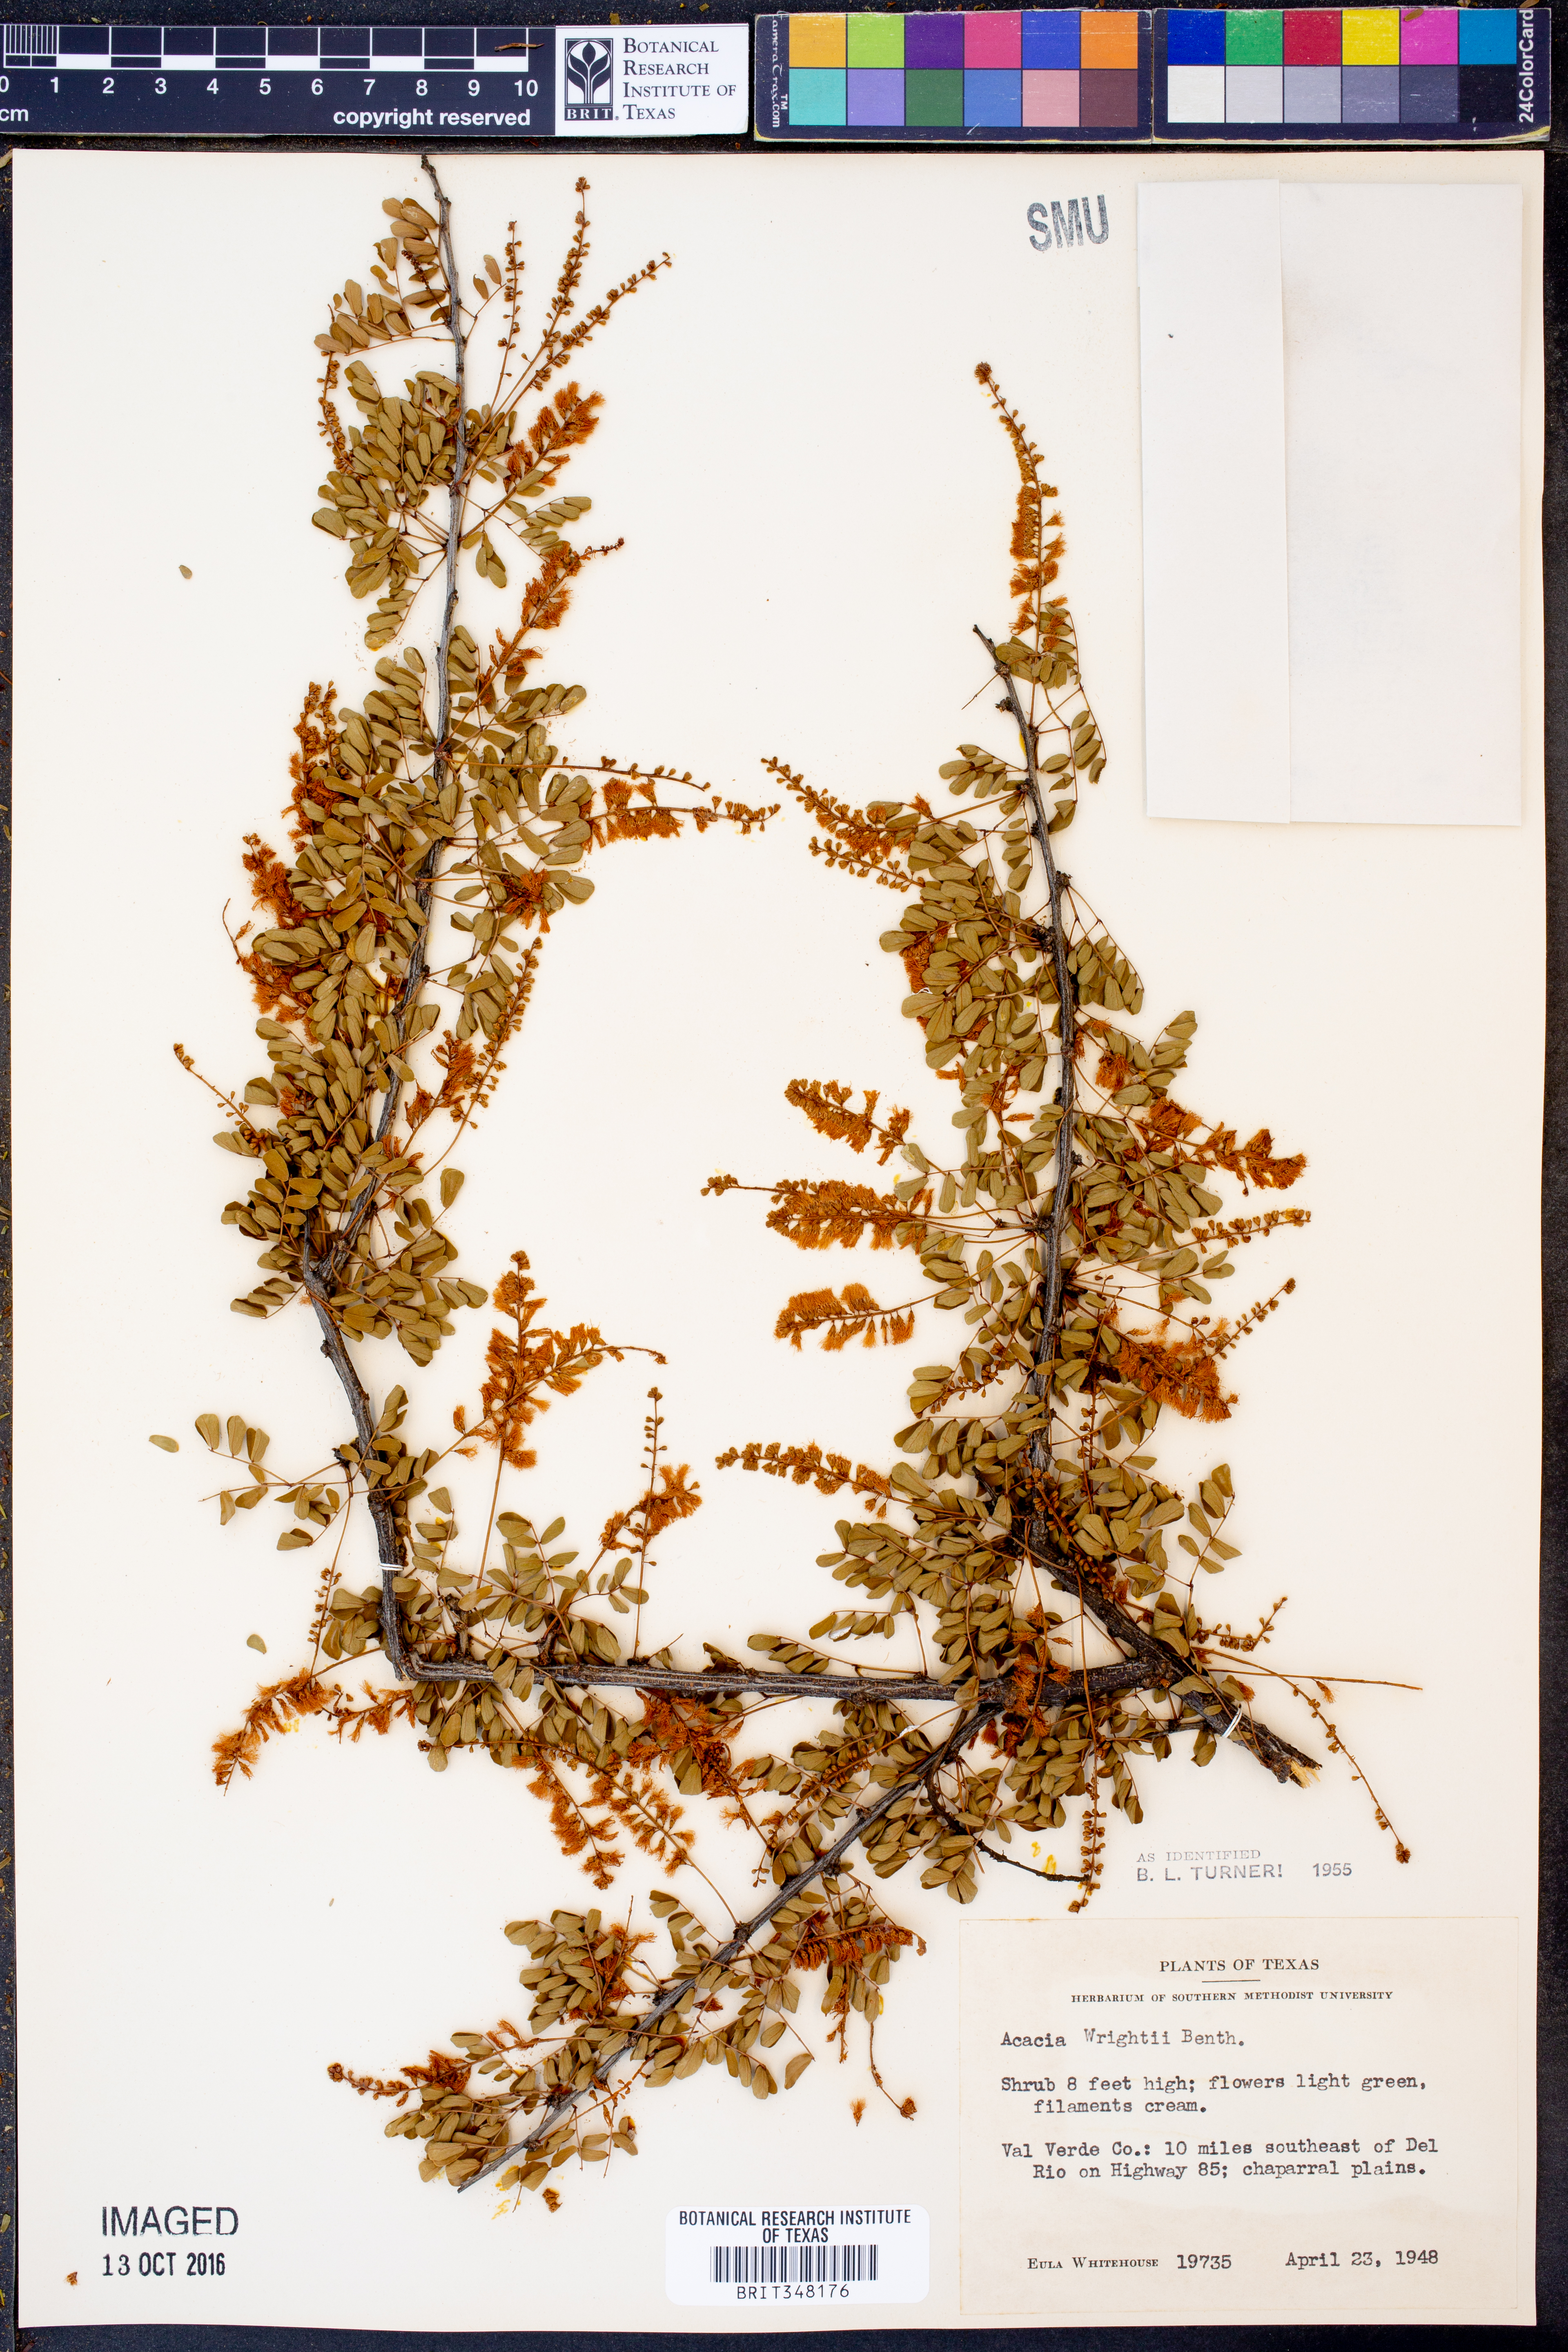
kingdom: Plantae
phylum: Tracheophyta
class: Magnoliopsida
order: Fabales
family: Fabaceae
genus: Senegalia
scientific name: Senegalia wrightii
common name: Texas cat's-claw
